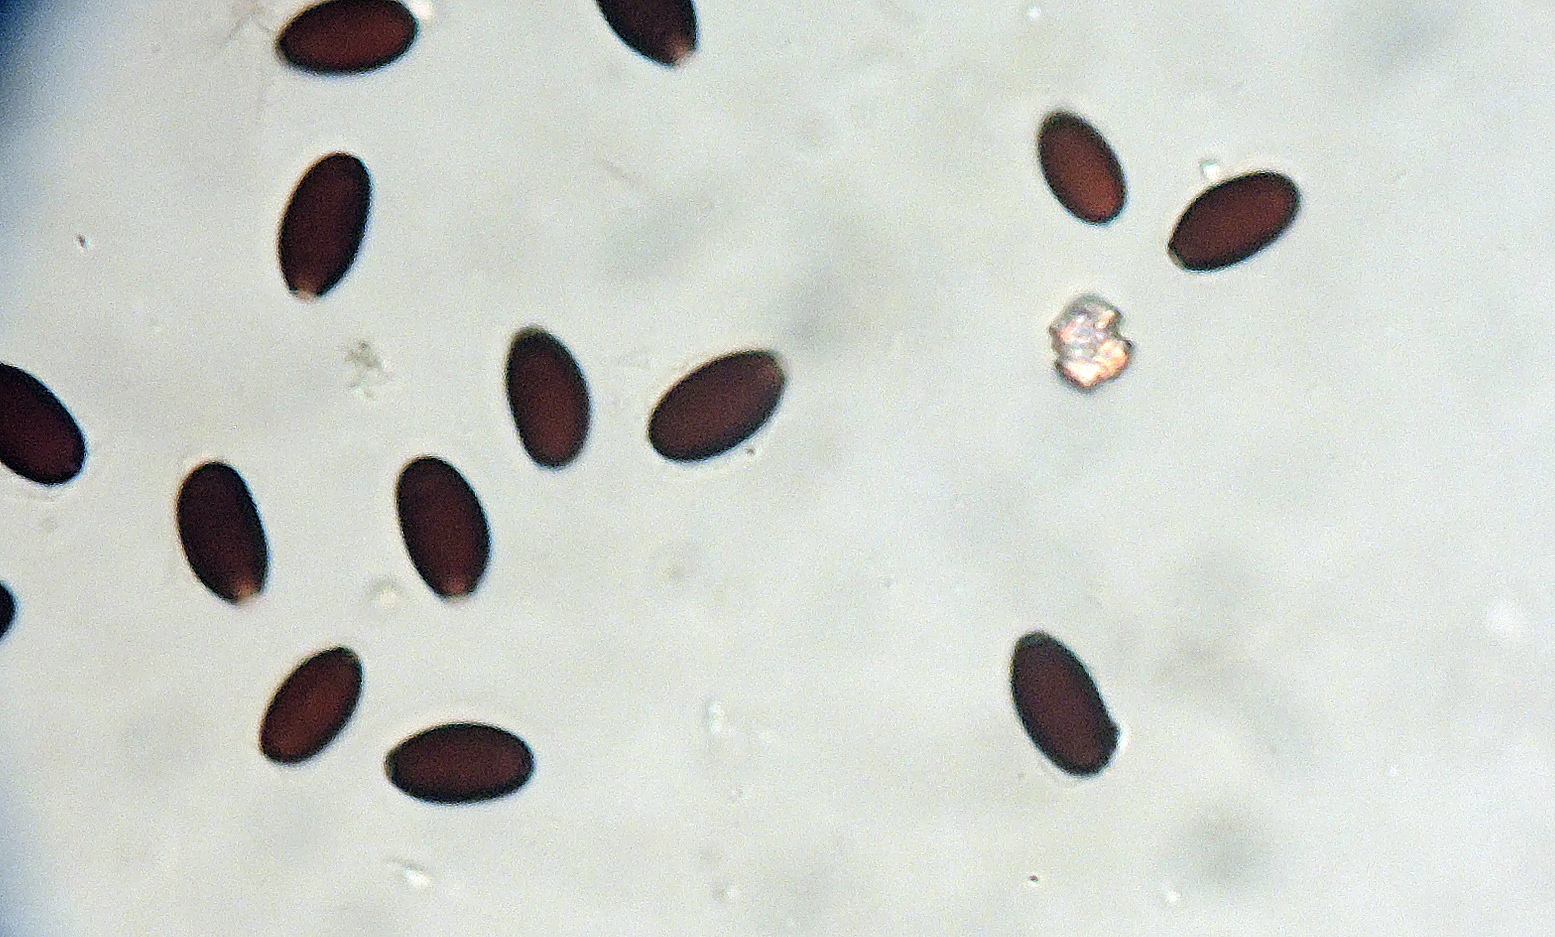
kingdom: Fungi
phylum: Basidiomycota
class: Agaricomycetes
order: Agaricales
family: Psathyrellaceae
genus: Coprinopsis
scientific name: Coprinopsis tuberosa
